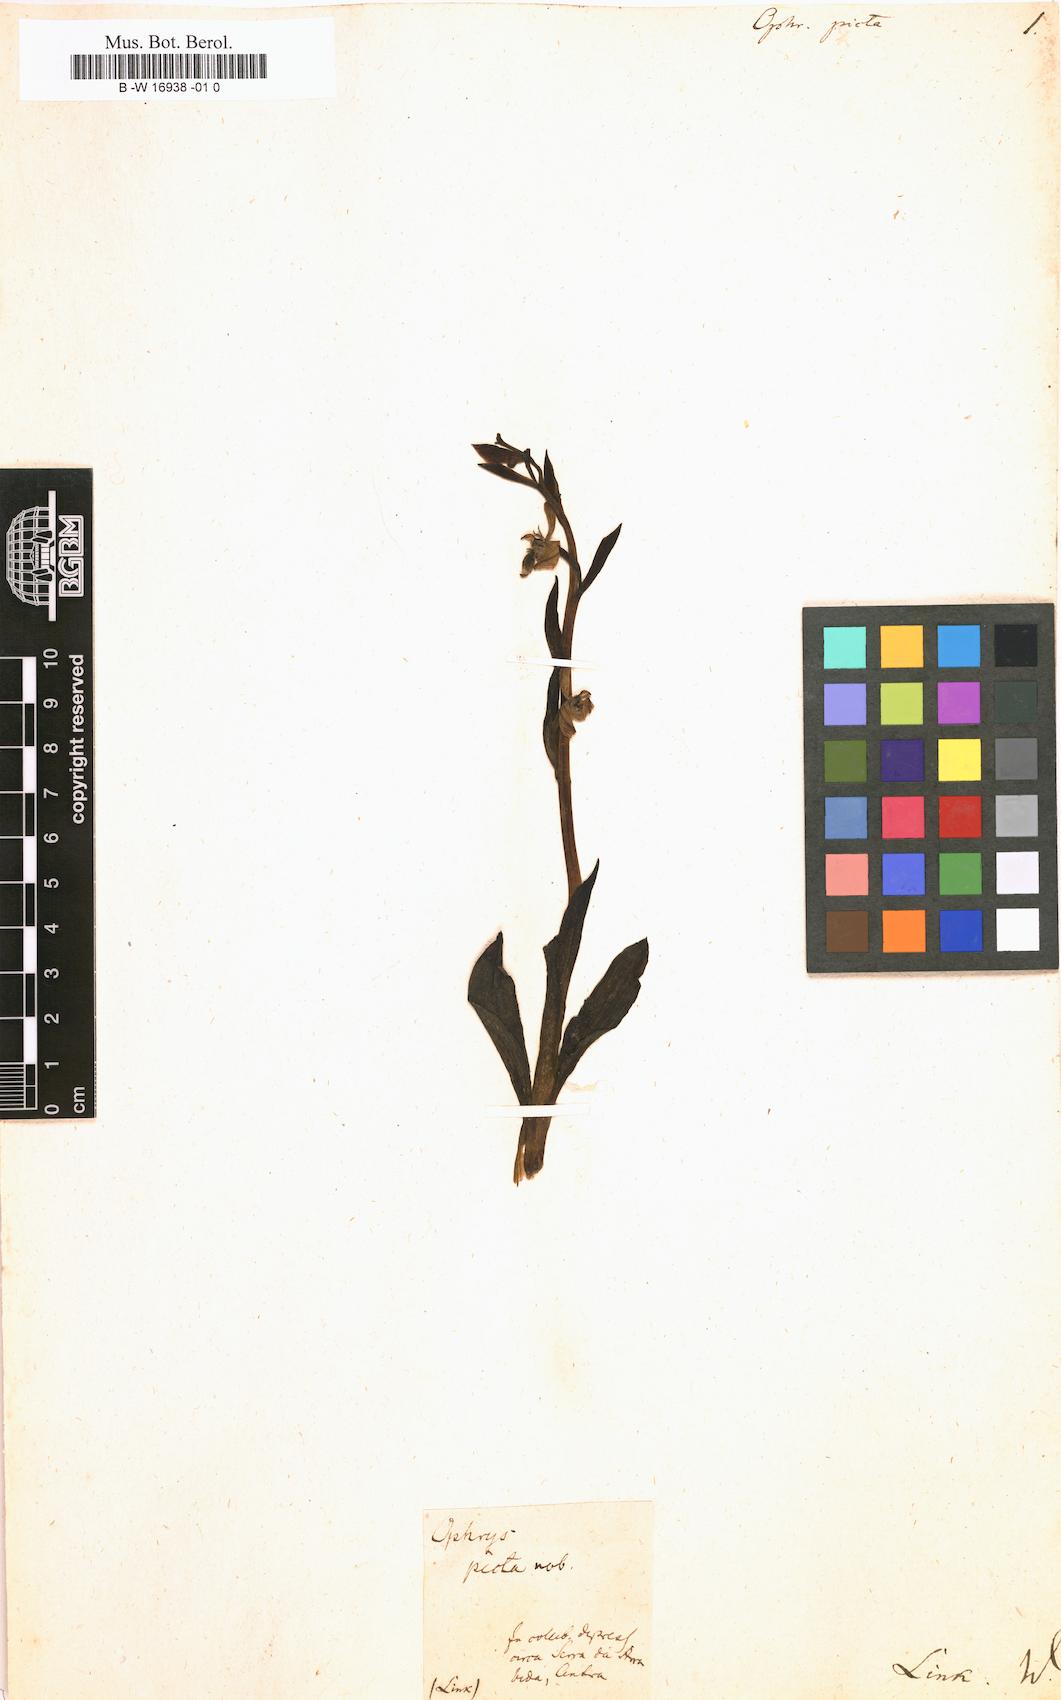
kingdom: Plantae
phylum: Tracheophyta
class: Liliopsida
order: Asparagales
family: Orchidaceae
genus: Ophrys
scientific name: Ophrys picta
